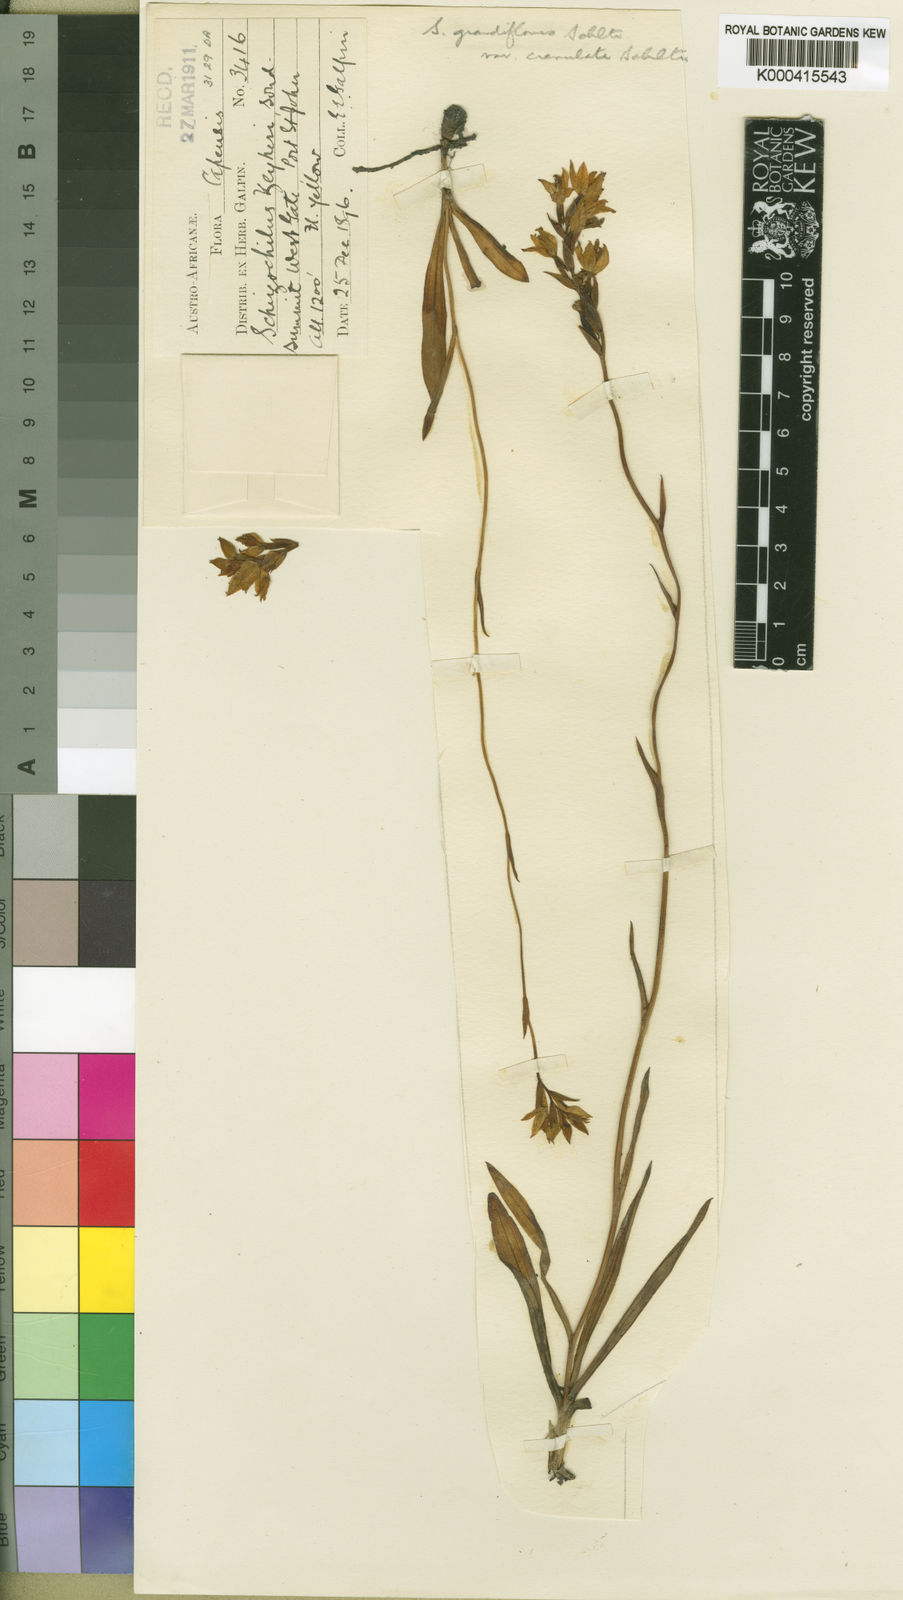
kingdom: Plantae
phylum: Tracheophyta
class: Liliopsida
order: Asparagales
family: Orchidaceae
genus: Schizochilus
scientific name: Schizochilus zeyheri
